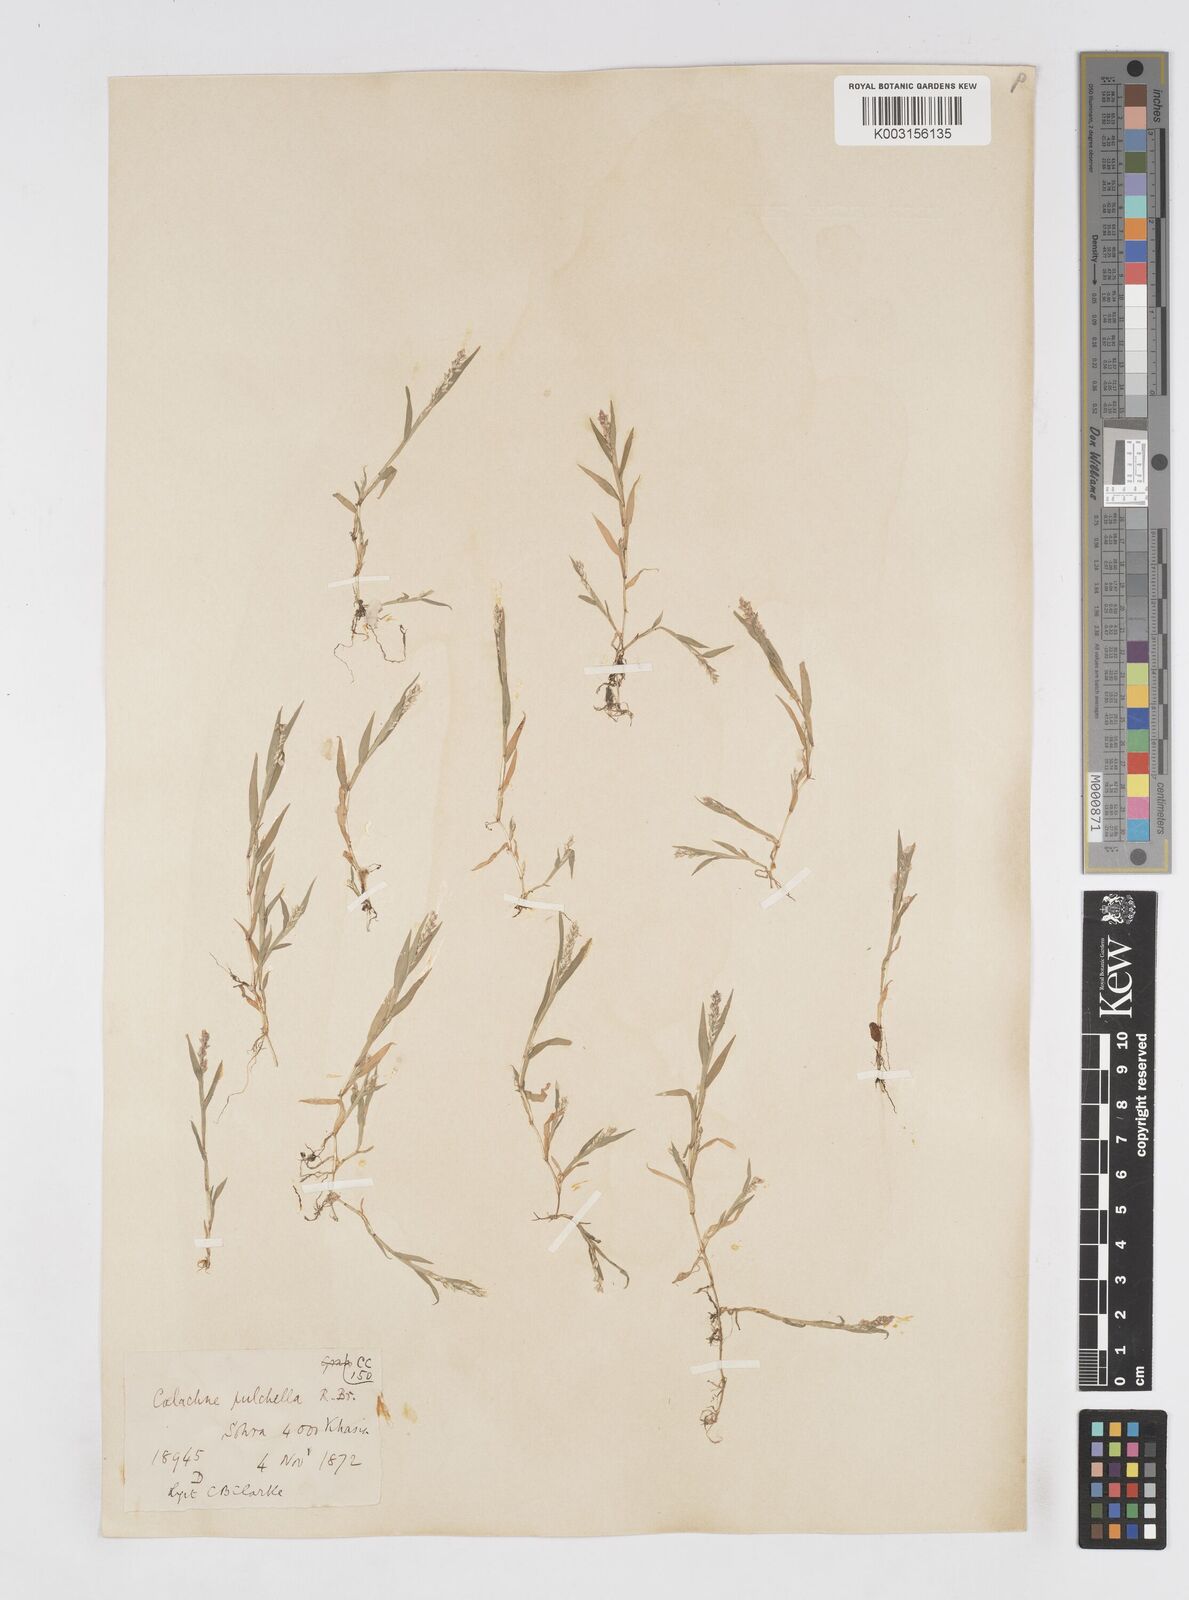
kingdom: Plantae
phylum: Tracheophyta
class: Liliopsida
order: Poales
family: Poaceae
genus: Coelachne
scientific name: Coelachne simpliciuscula
